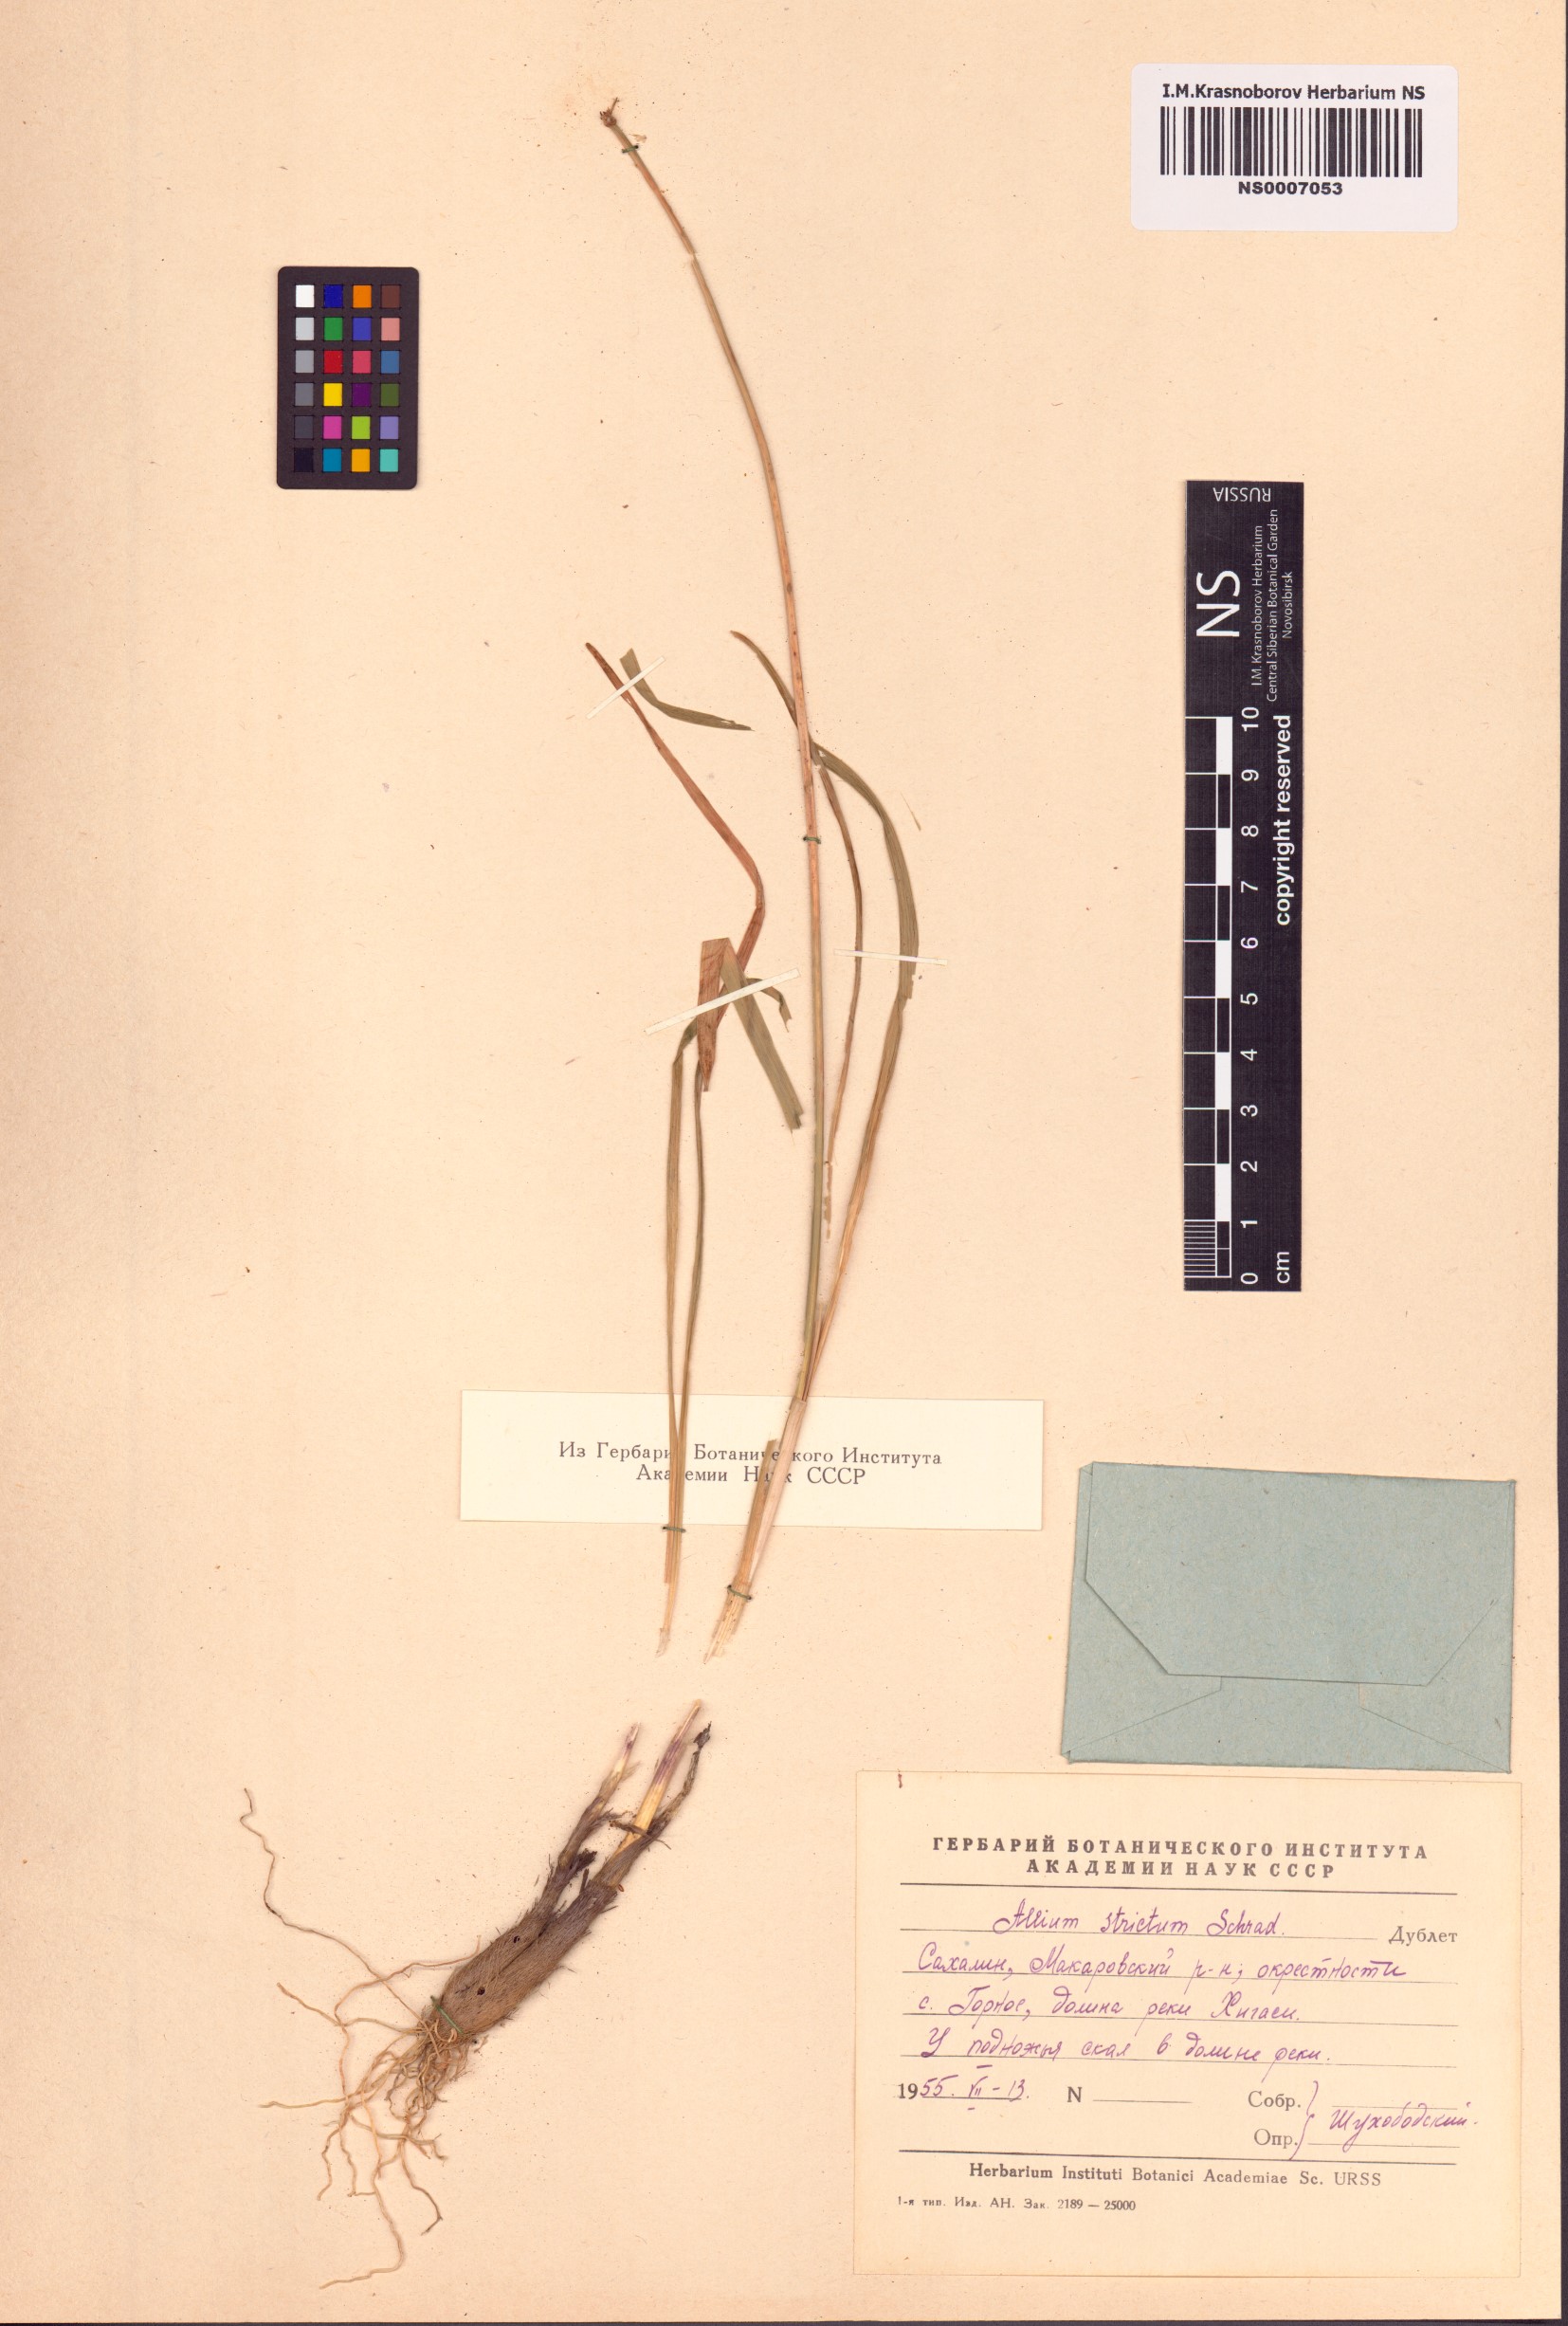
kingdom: Plantae
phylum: Tracheophyta
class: Liliopsida
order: Asparagales
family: Amaryllidaceae
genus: Allium
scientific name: Allium strictum
